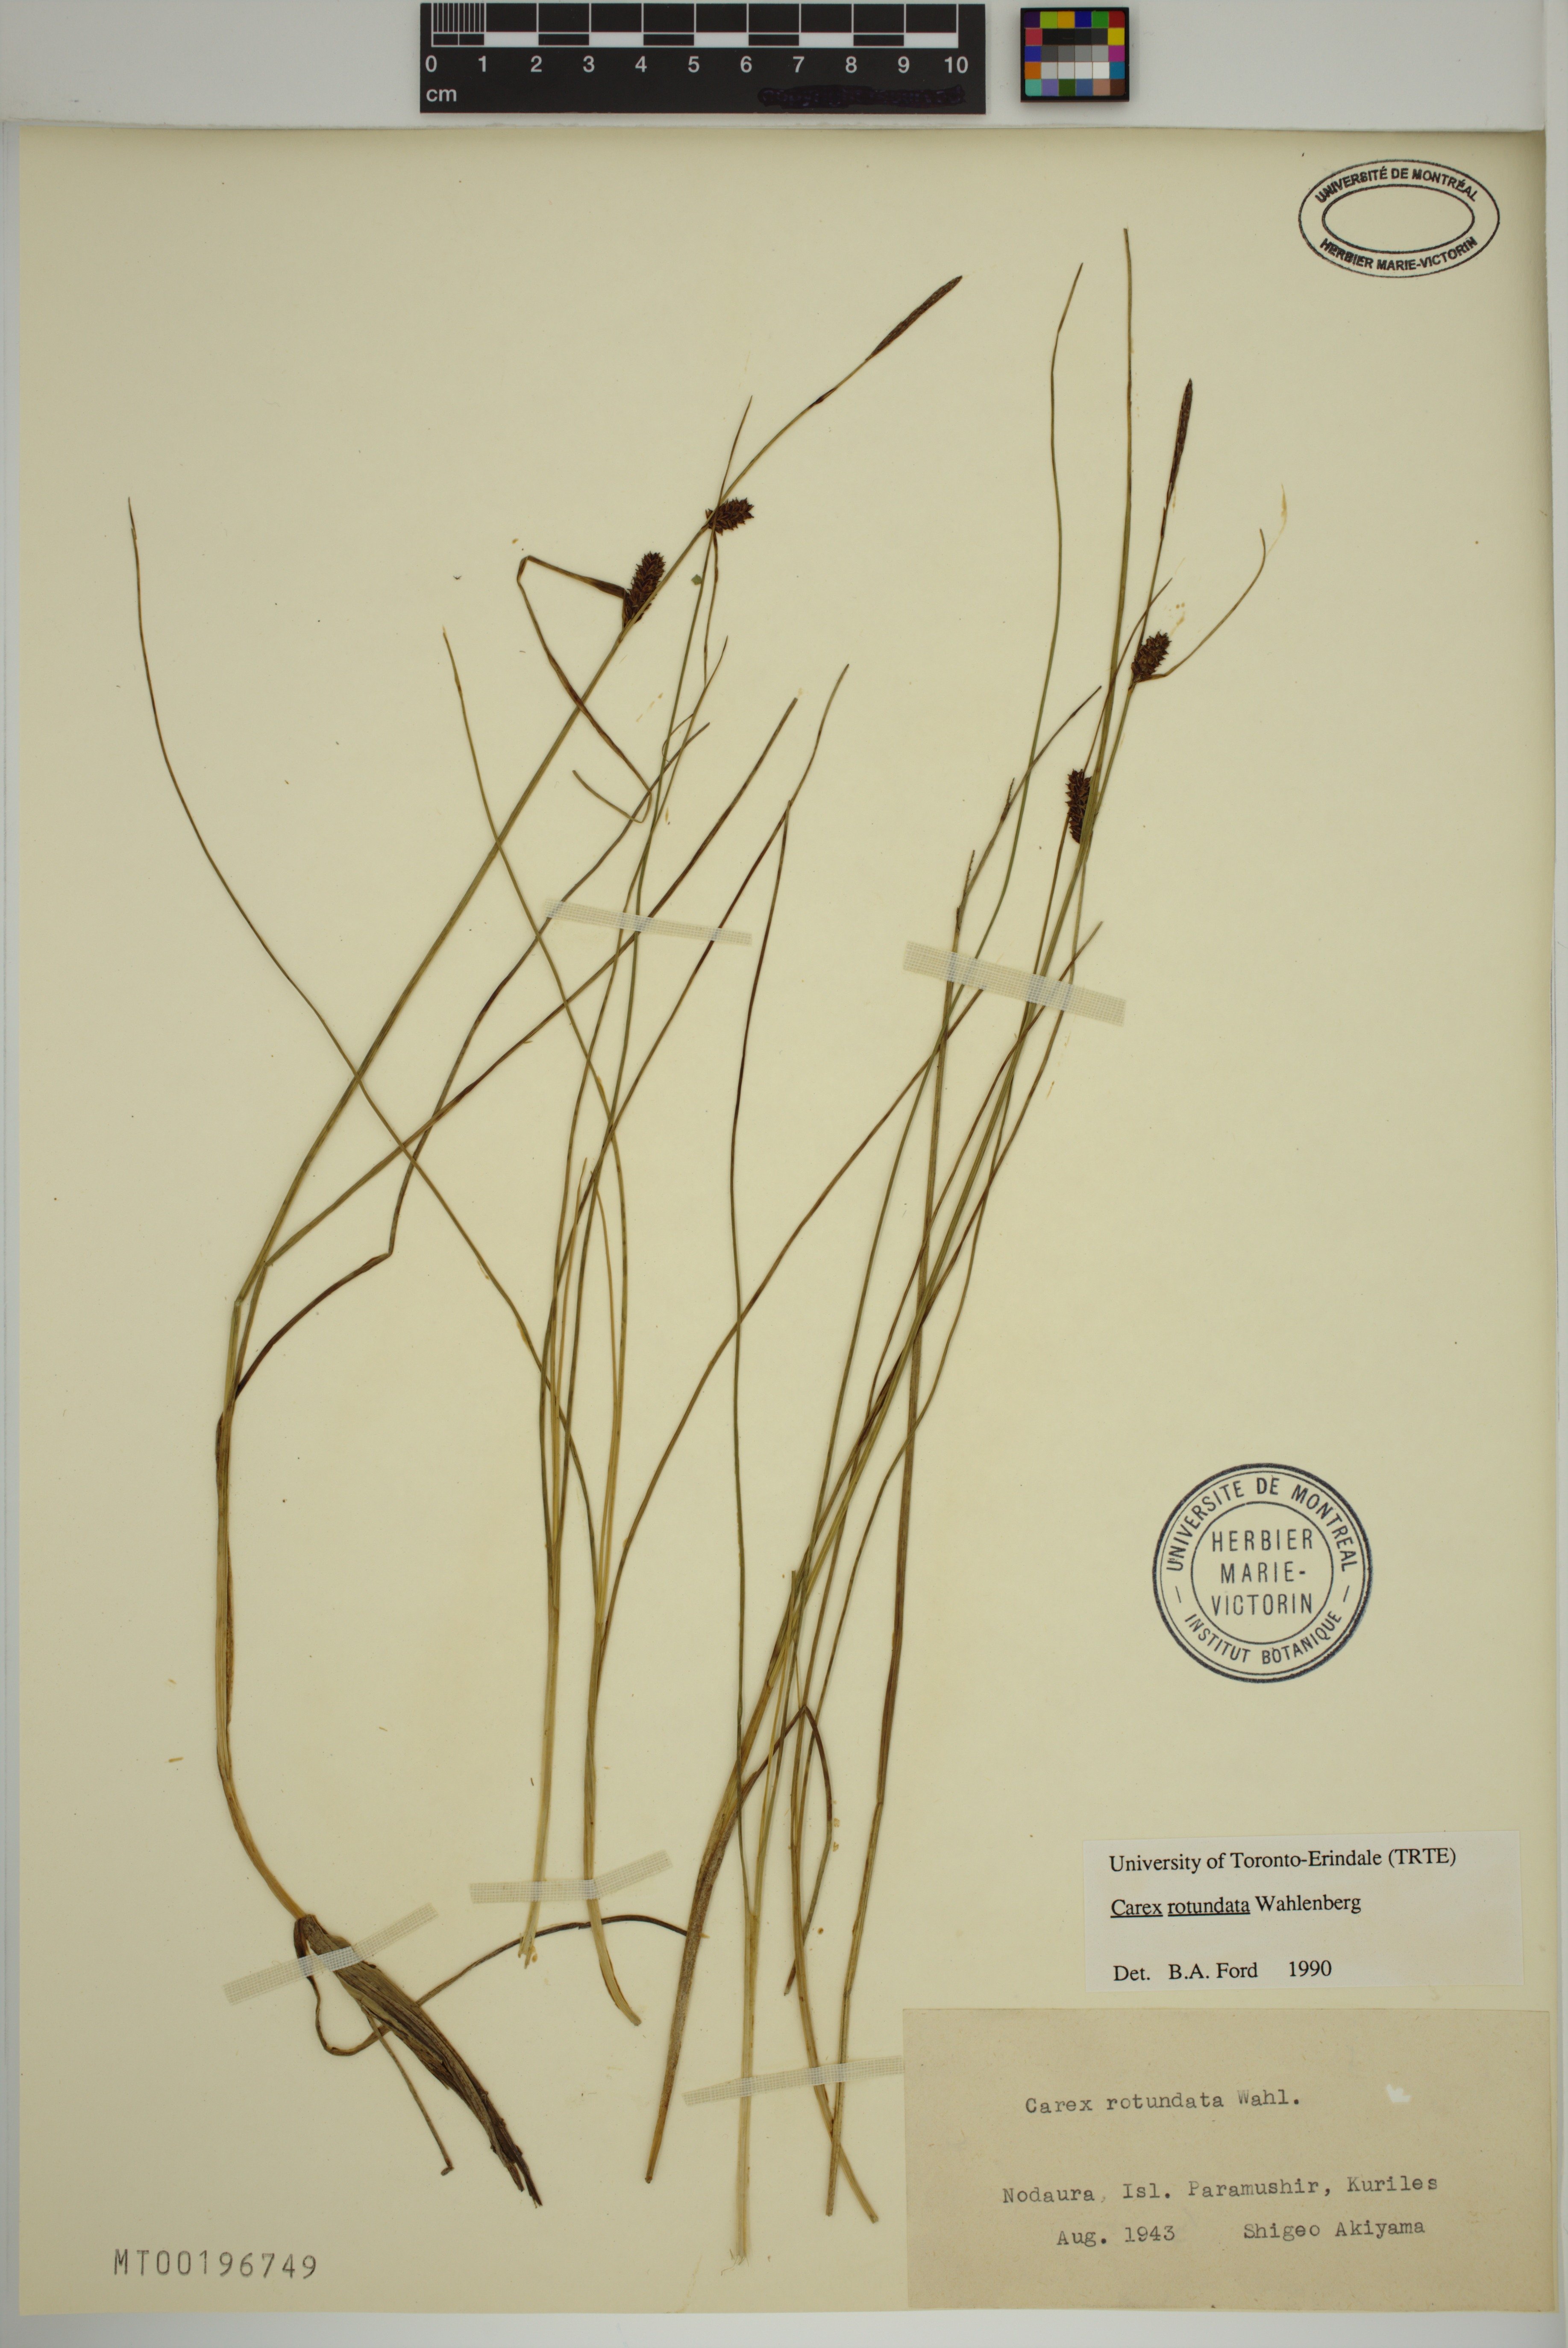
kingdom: Plantae
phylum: Tracheophyta
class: Liliopsida
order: Poales
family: Cyperaceae
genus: Carex
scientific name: Carex rotundata
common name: Round-fruited sedge
